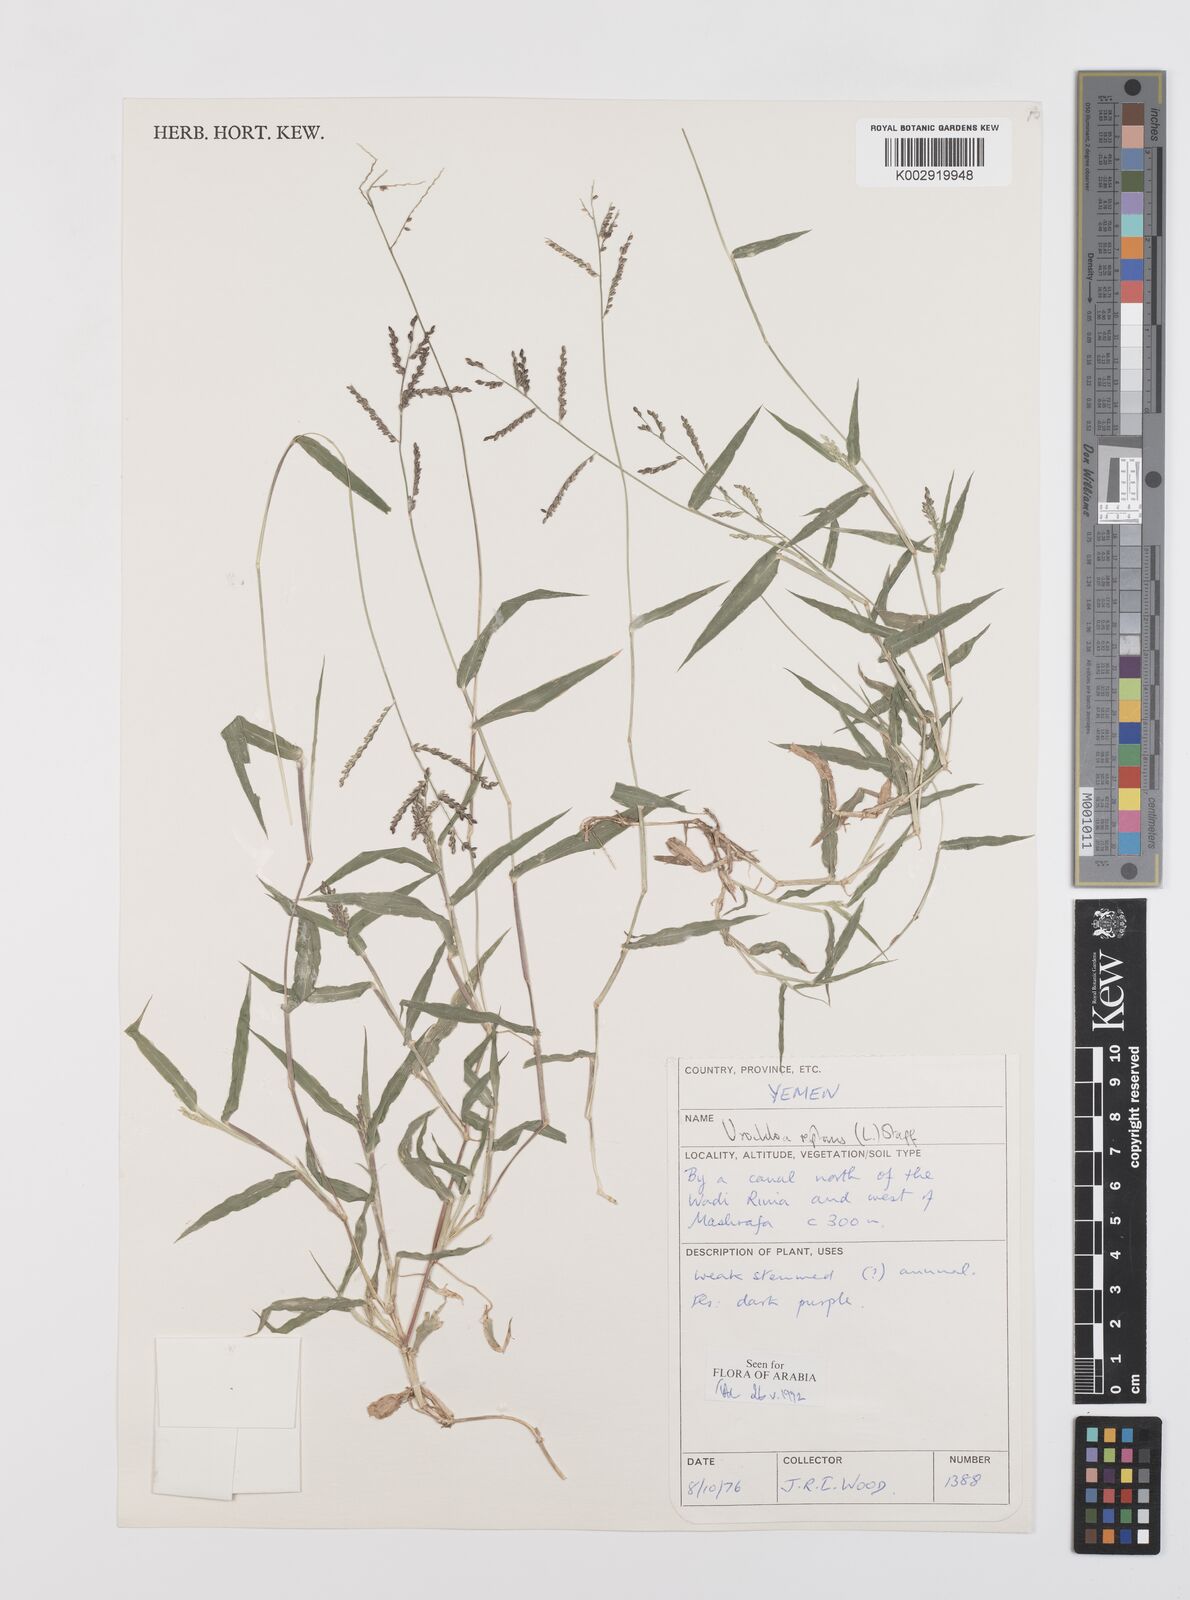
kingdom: Plantae
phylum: Tracheophyta
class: Liliopsida
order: Poales
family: Poaceae
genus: Urochloa
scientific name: Urochloa reptans
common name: Sprawling signalgrass
